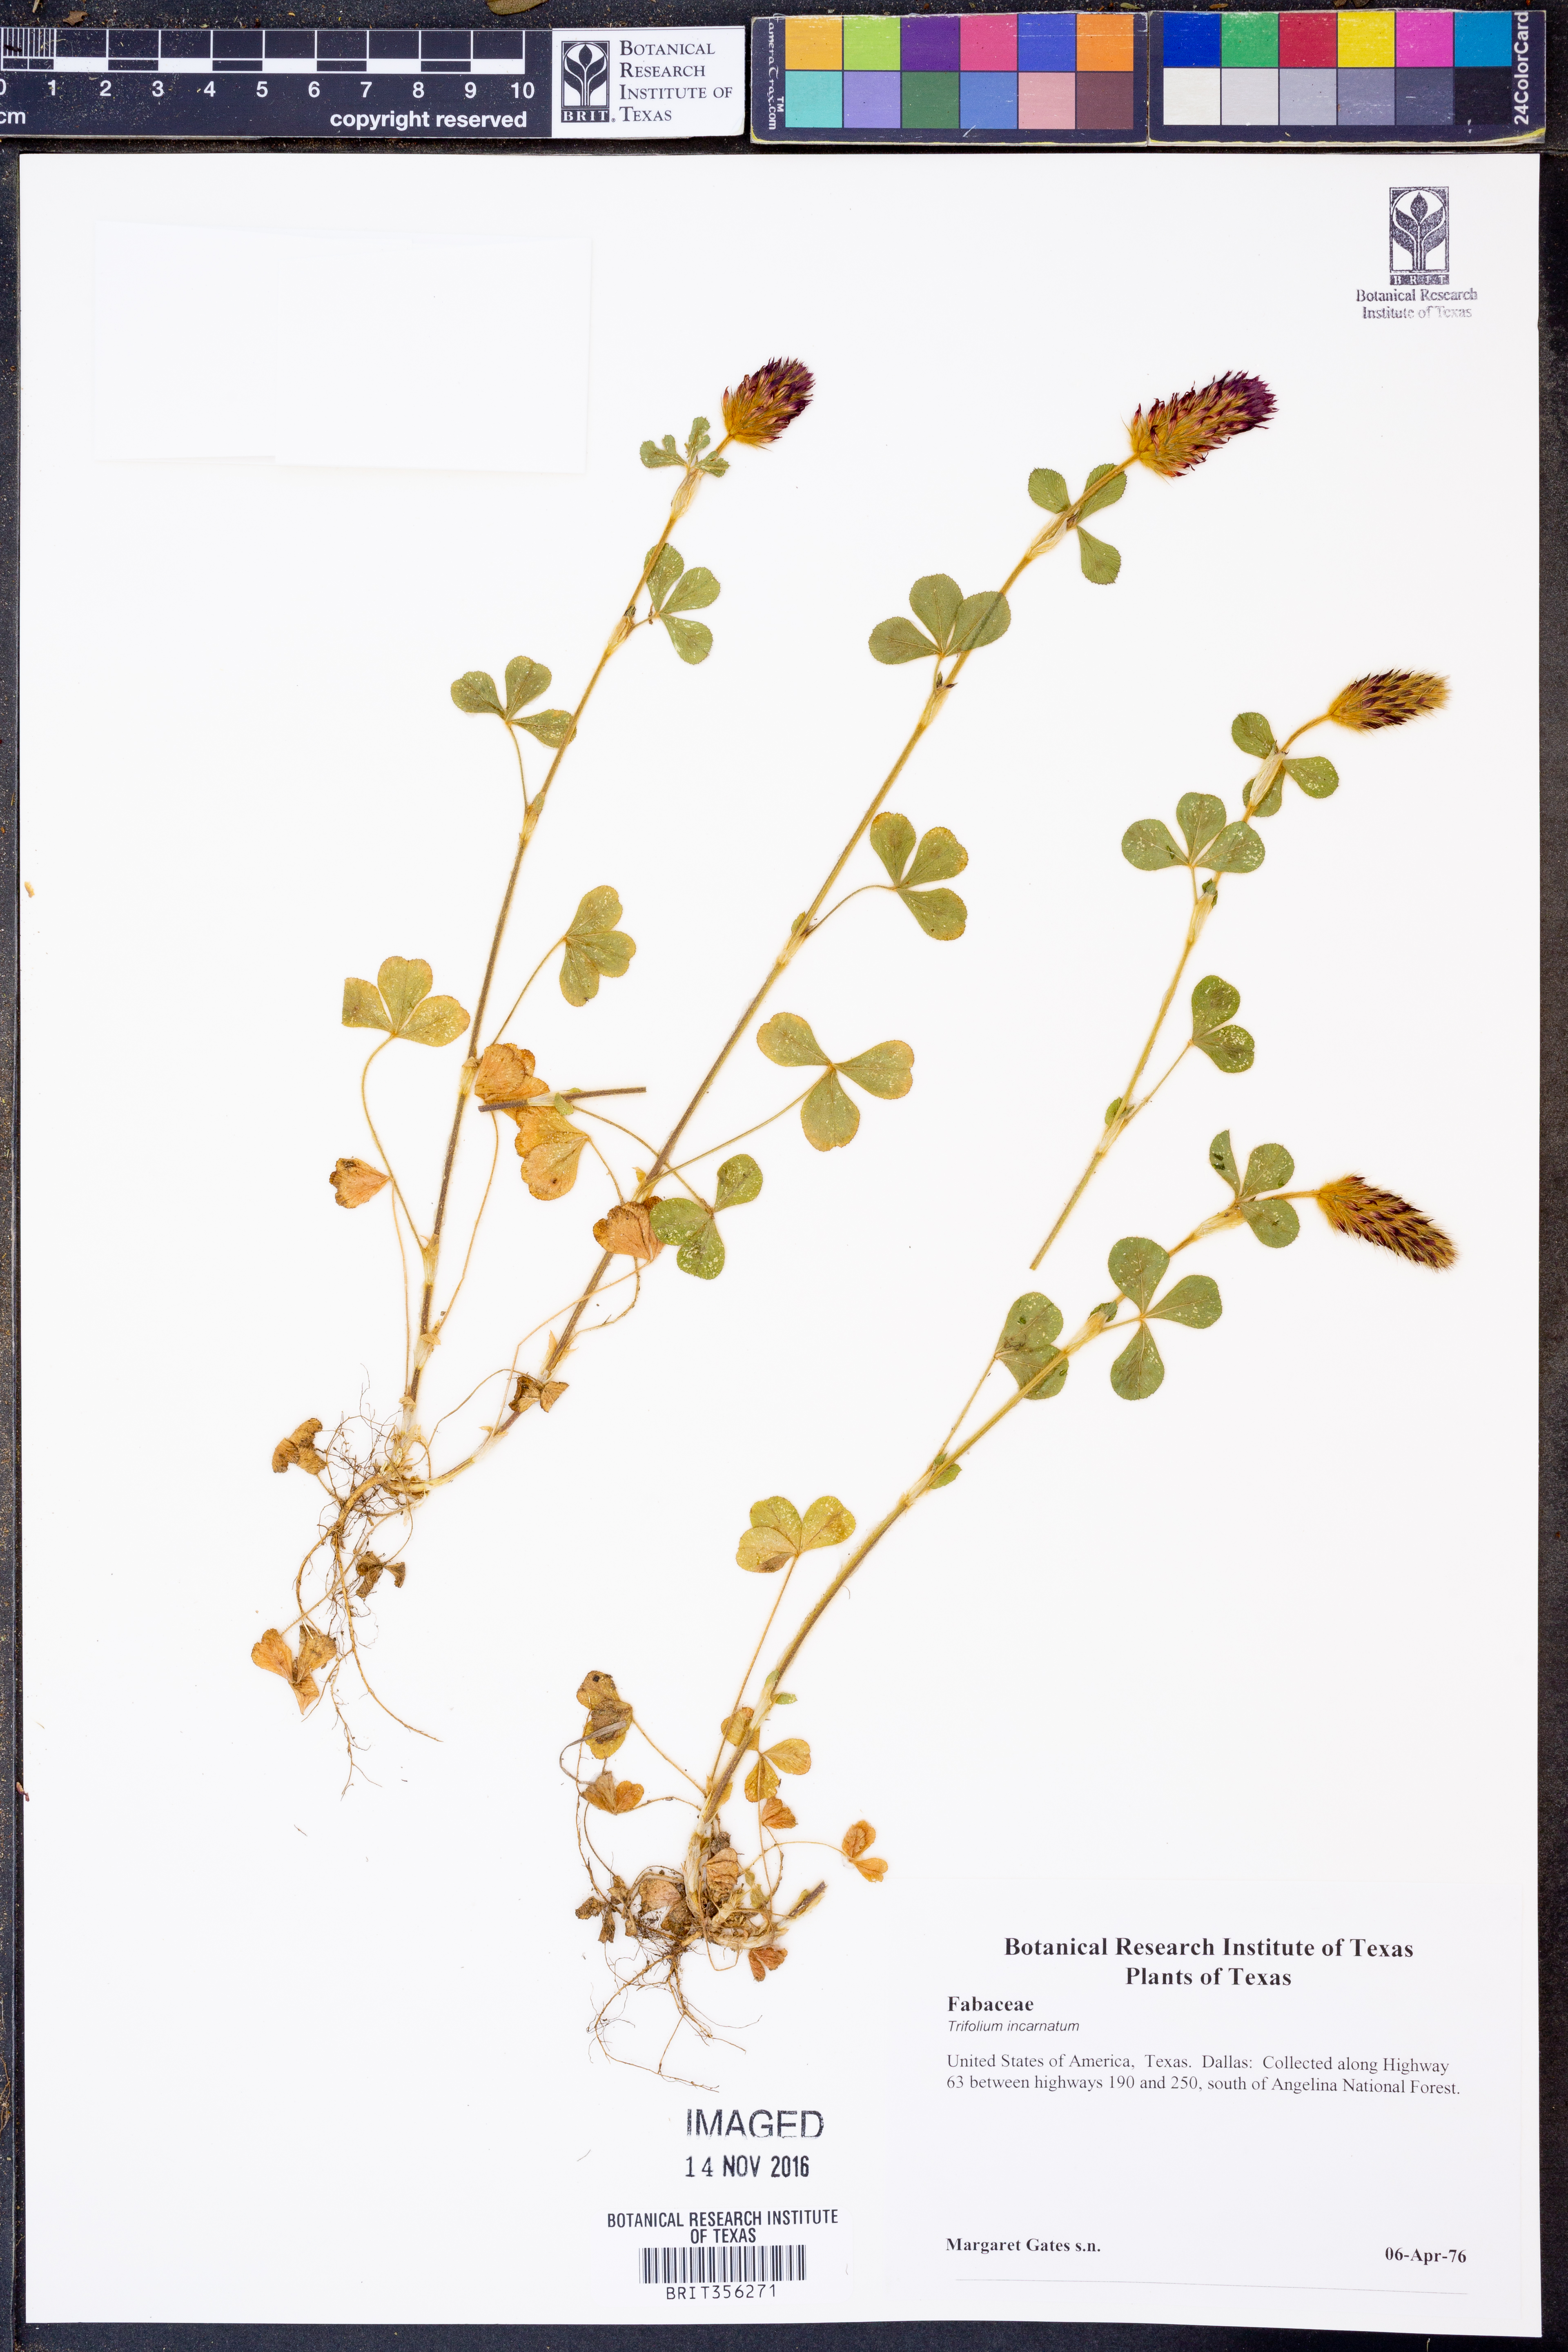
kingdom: Plantae
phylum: Tracheophyta
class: Magnoliopsida
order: Fabales
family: Fabaceae
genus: Trifolium
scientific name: Trifolium incarnatum
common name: Crimson clover
